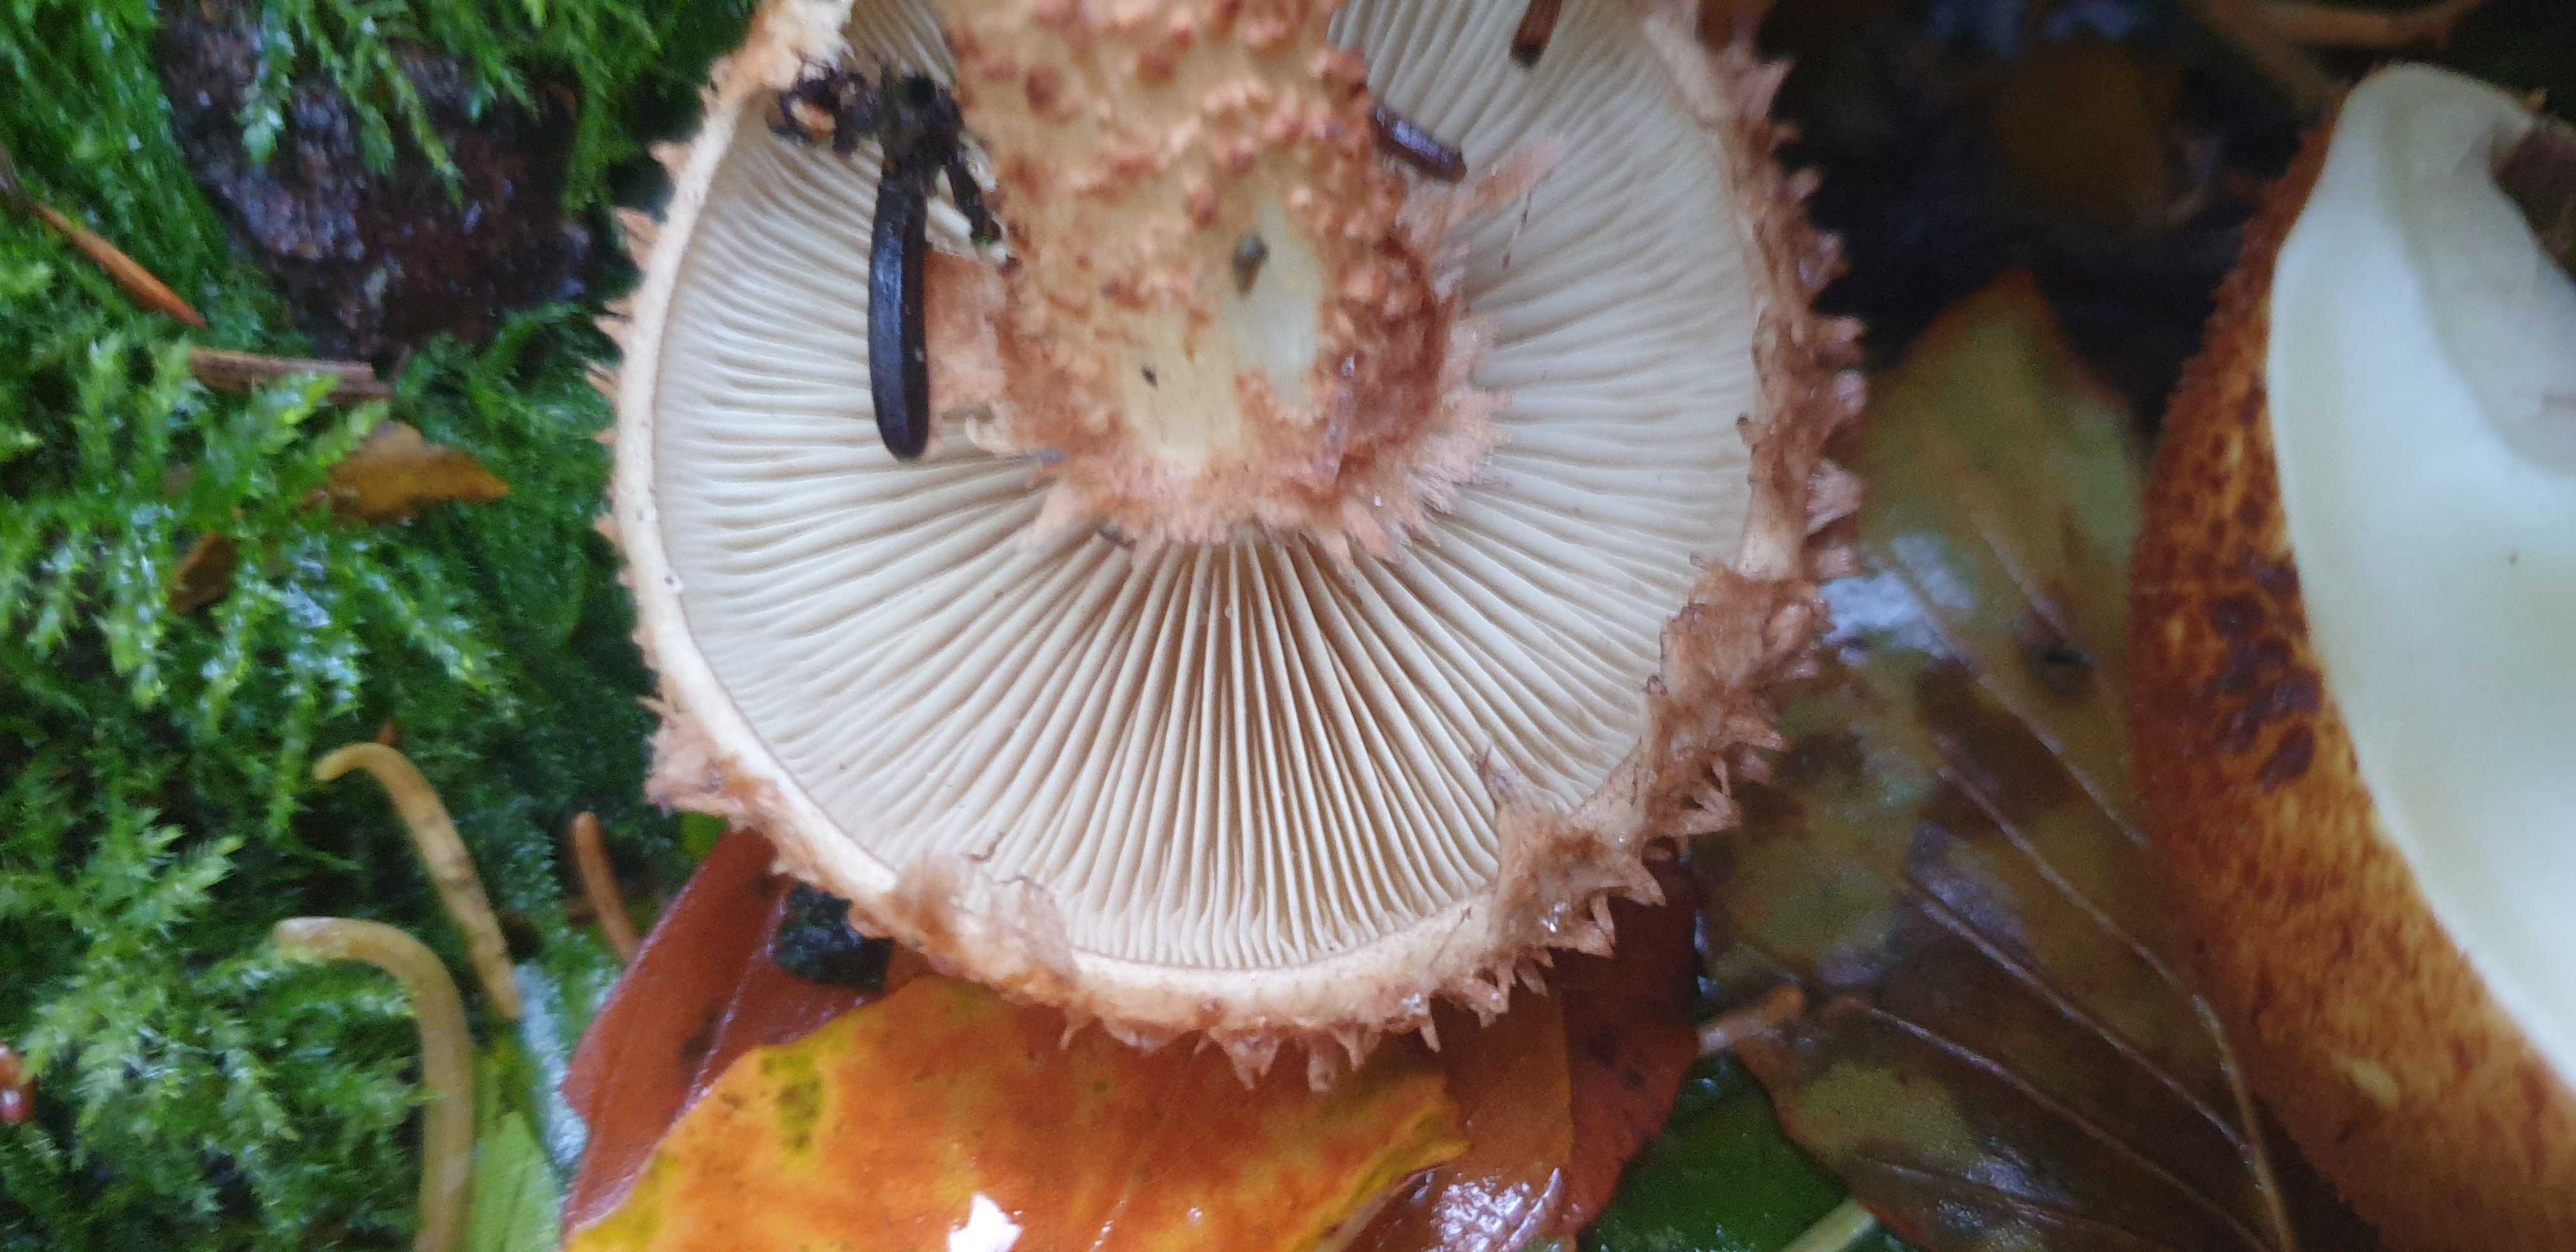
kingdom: Fungi
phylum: Basidiomycota
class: Agaricomycetes
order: Agaricales
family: Strophariaceae
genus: Pholiota
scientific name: Pholiota squarrosa
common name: krumskællet skælhat
